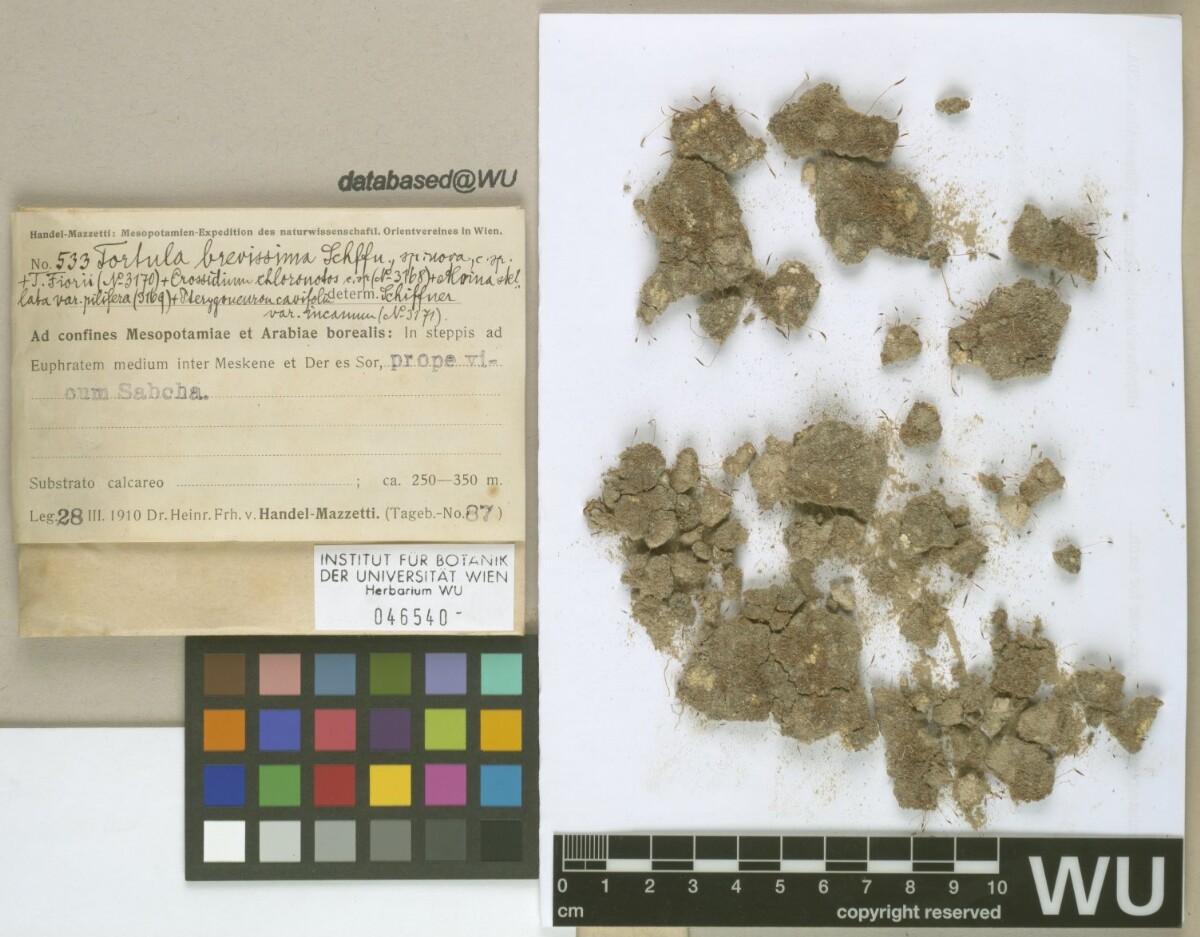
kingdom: Plantae
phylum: Bryophyta
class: Bryopsida
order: Pottiales
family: Pottiaceae
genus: Tortula
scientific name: Tortula brevissima
